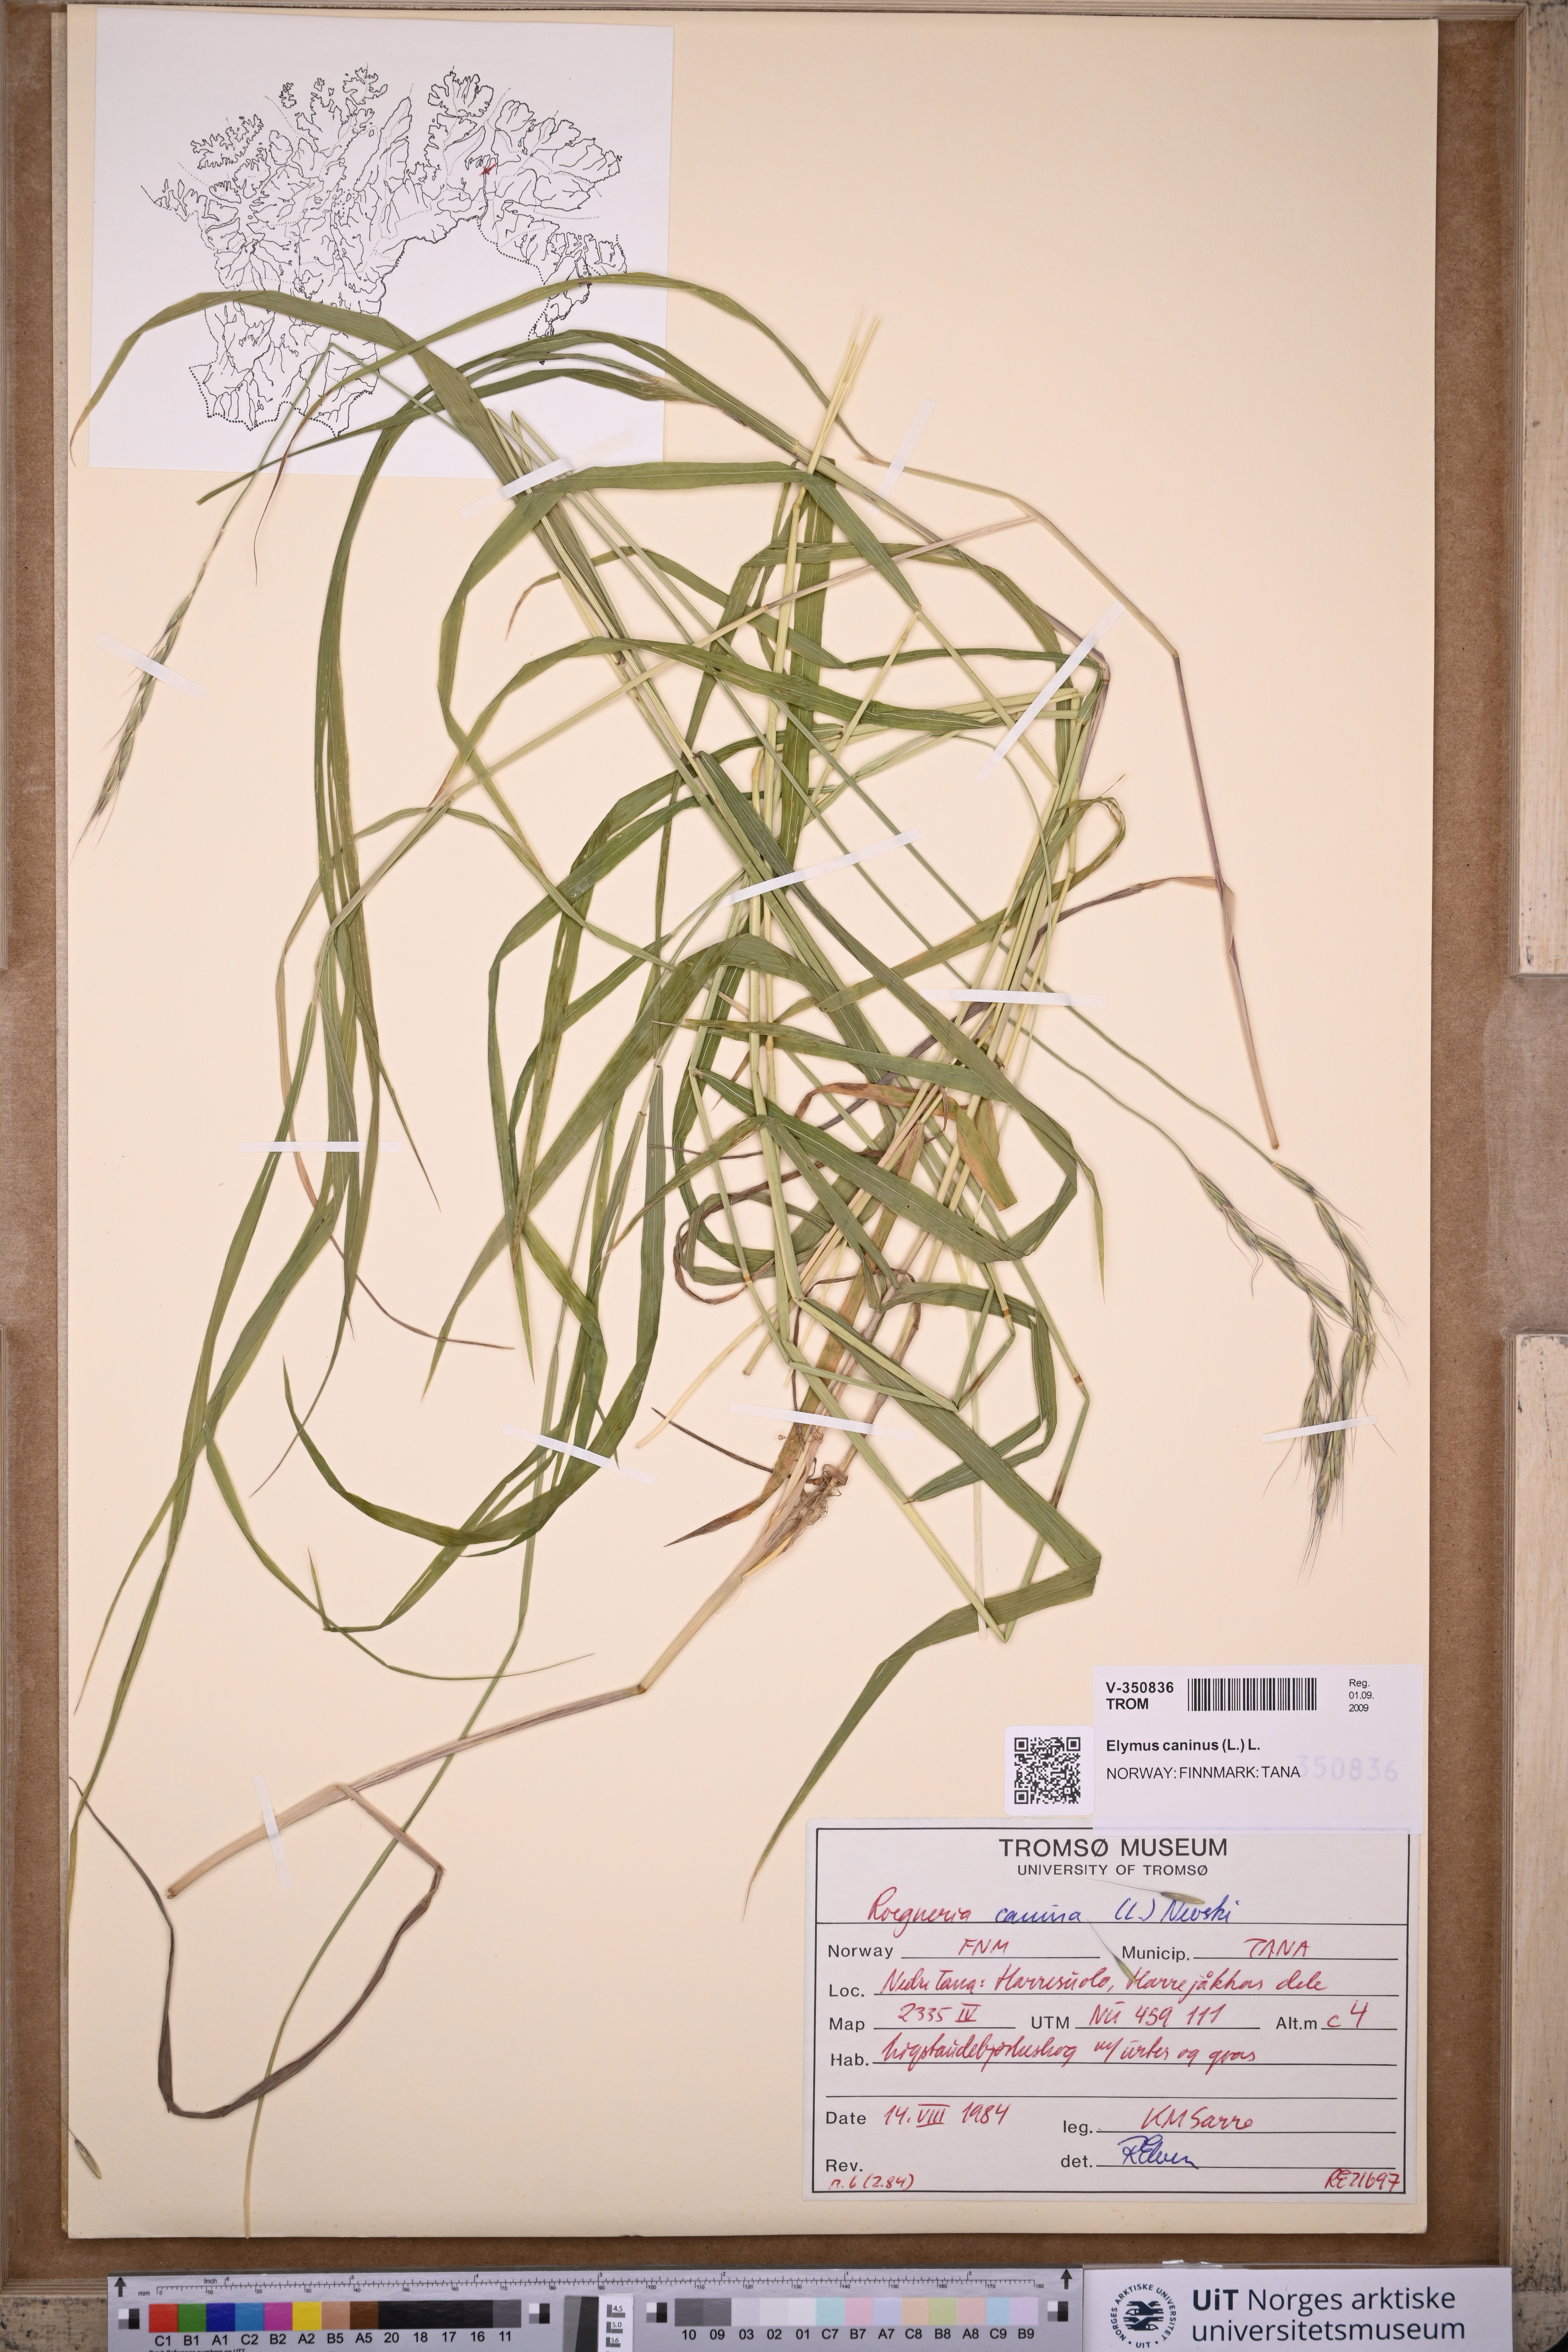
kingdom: Plantae
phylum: Tracheophyta
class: Liliopsida
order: Poales
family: Poaceae
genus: Elymus
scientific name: Elymus caninus
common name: Bearded couch
